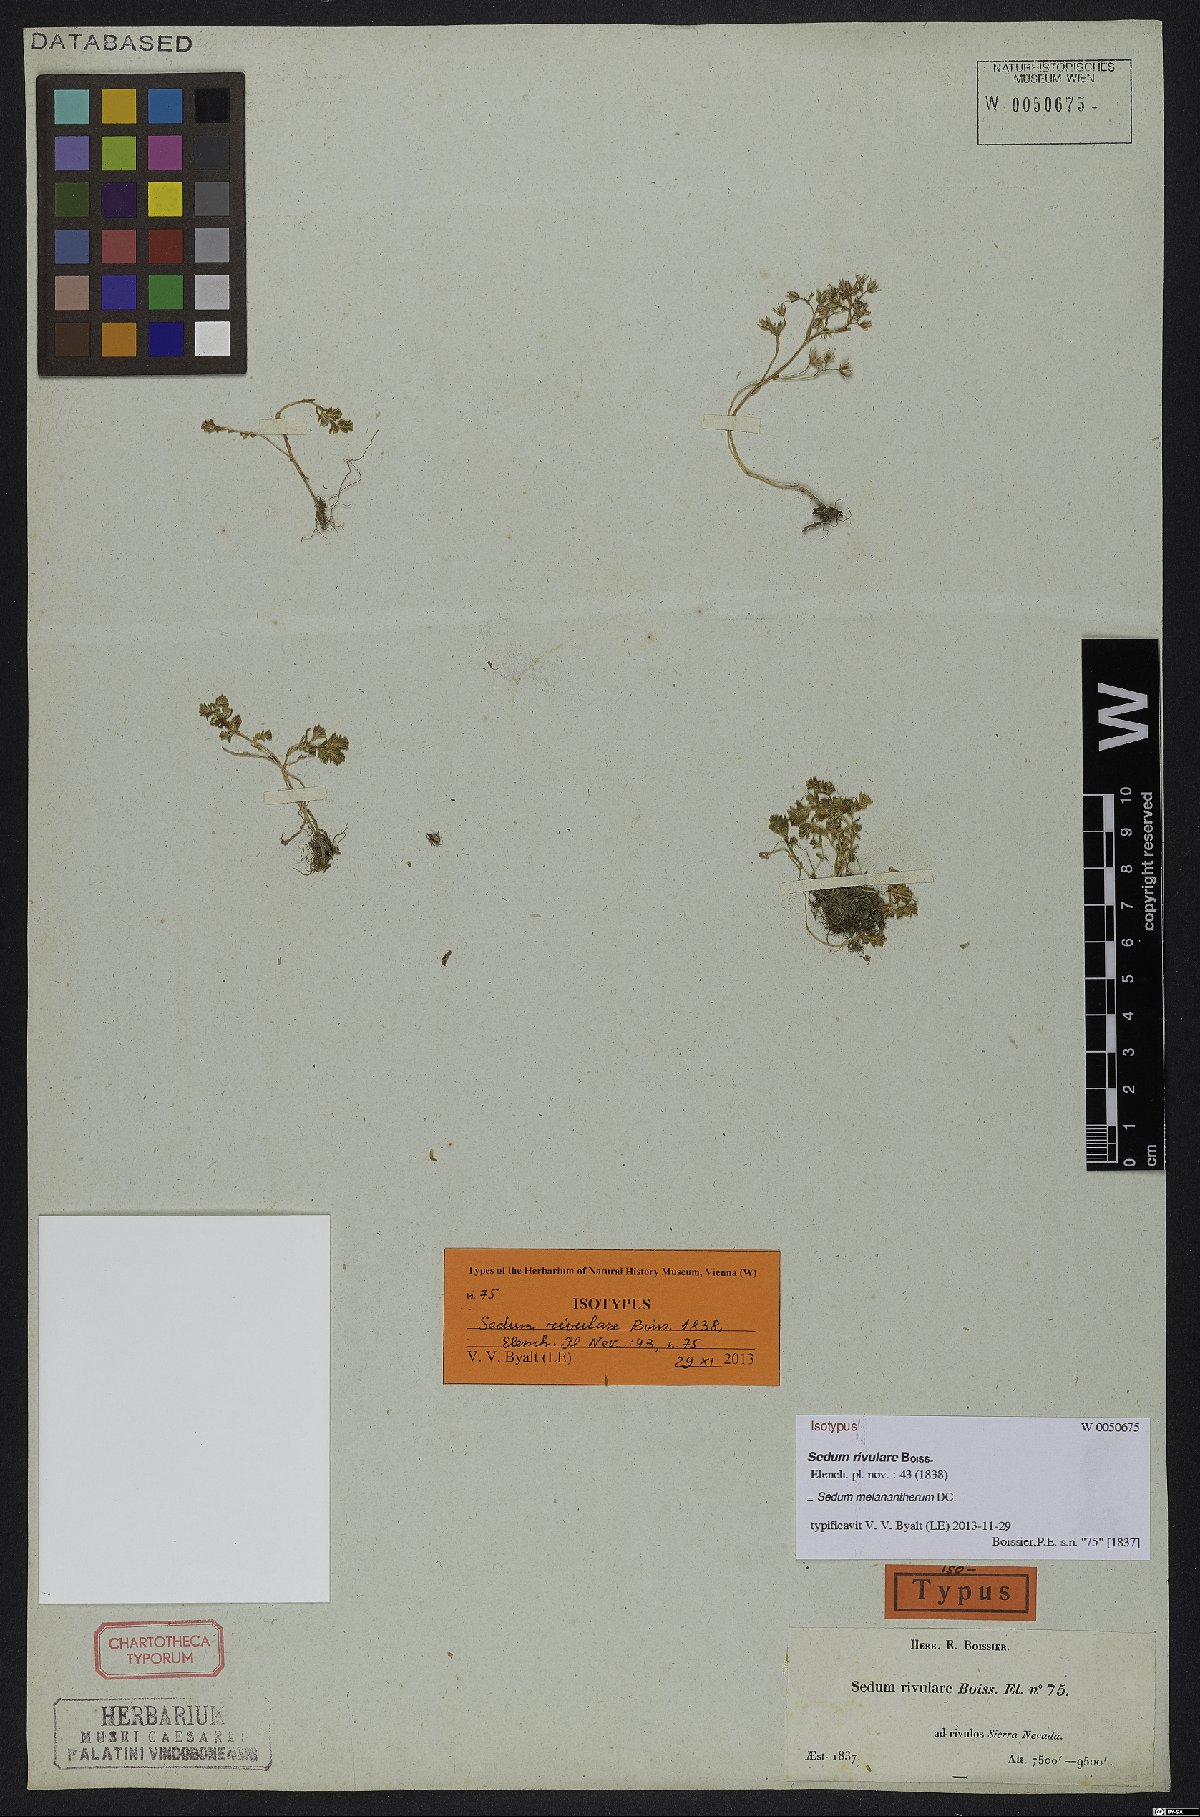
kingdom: Plantae
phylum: Tracheophyta
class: Magnoliopsida
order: Saxifragales
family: Crassulaceae
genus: Sedum
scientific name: Sedum melanantherum
